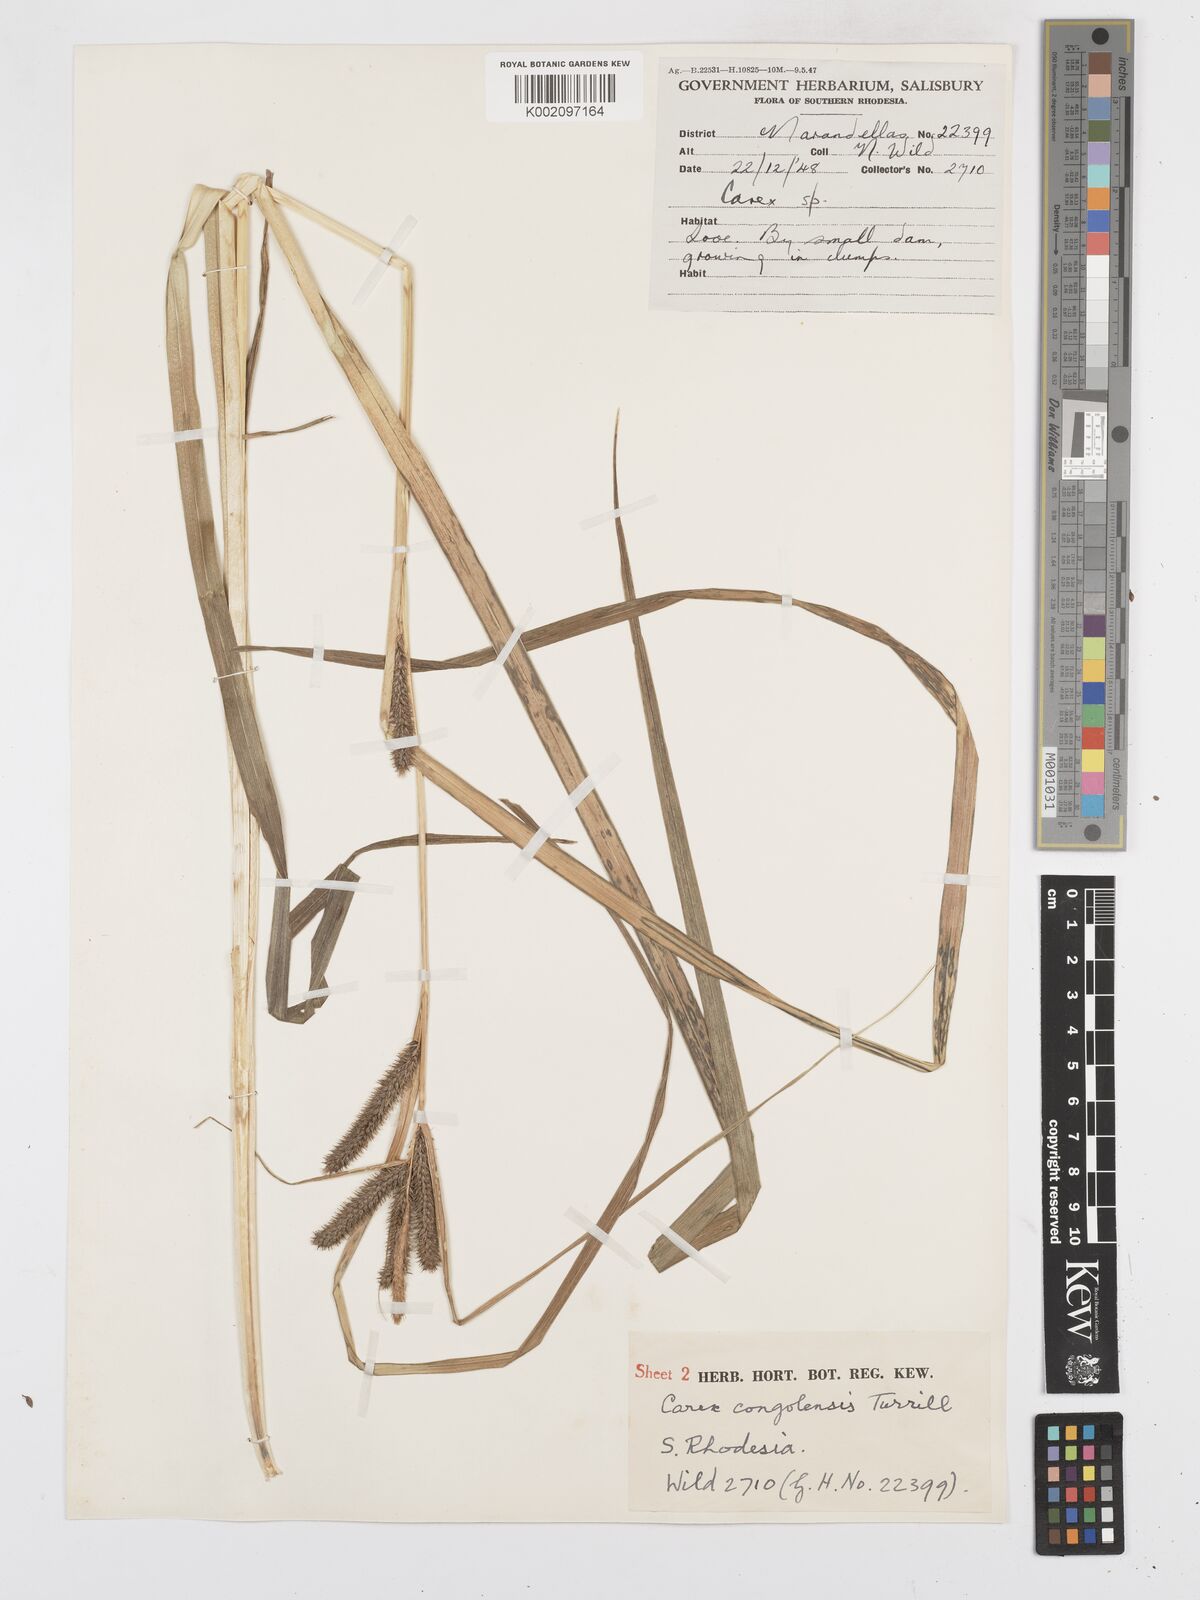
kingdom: Plantae
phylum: Tracheophyta
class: Liliopsida
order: Poales
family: Cyperaceae
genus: Carex
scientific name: Carex congolensis
